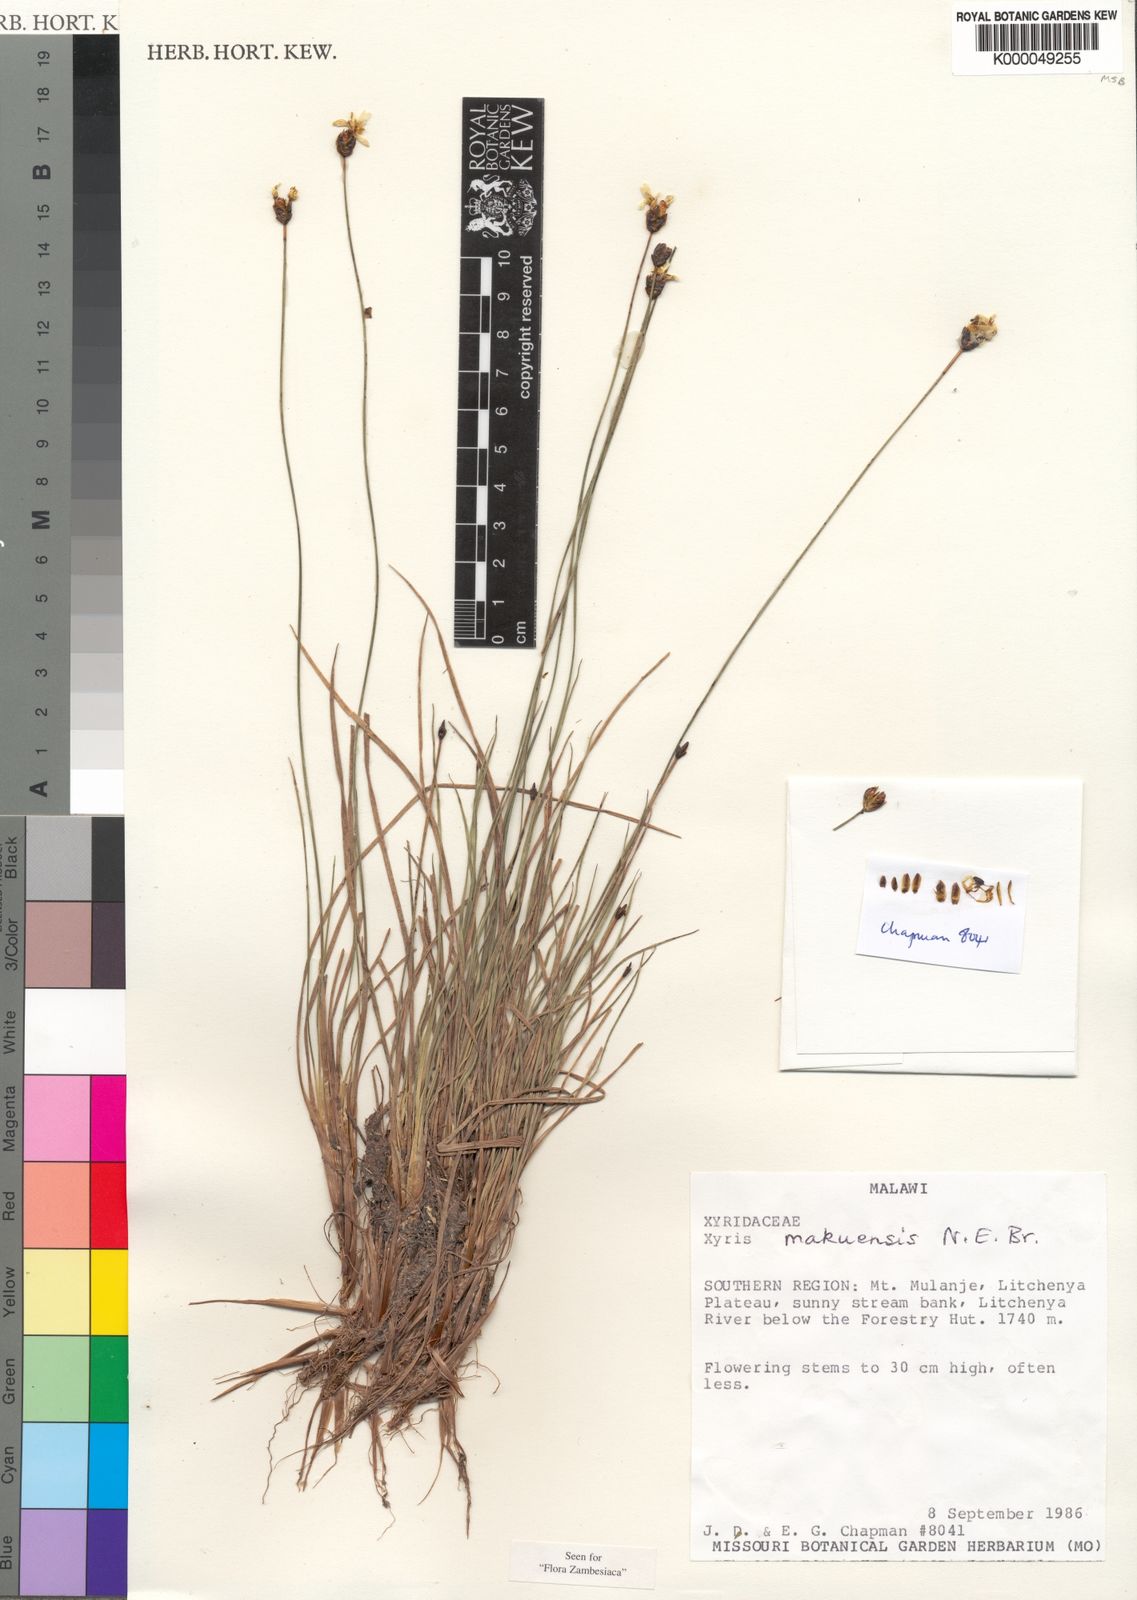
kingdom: Plantae
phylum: Tracheophyta
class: Liliopsida
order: Poales
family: Xyridaceae
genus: Xyris
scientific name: Xyris makuensis
